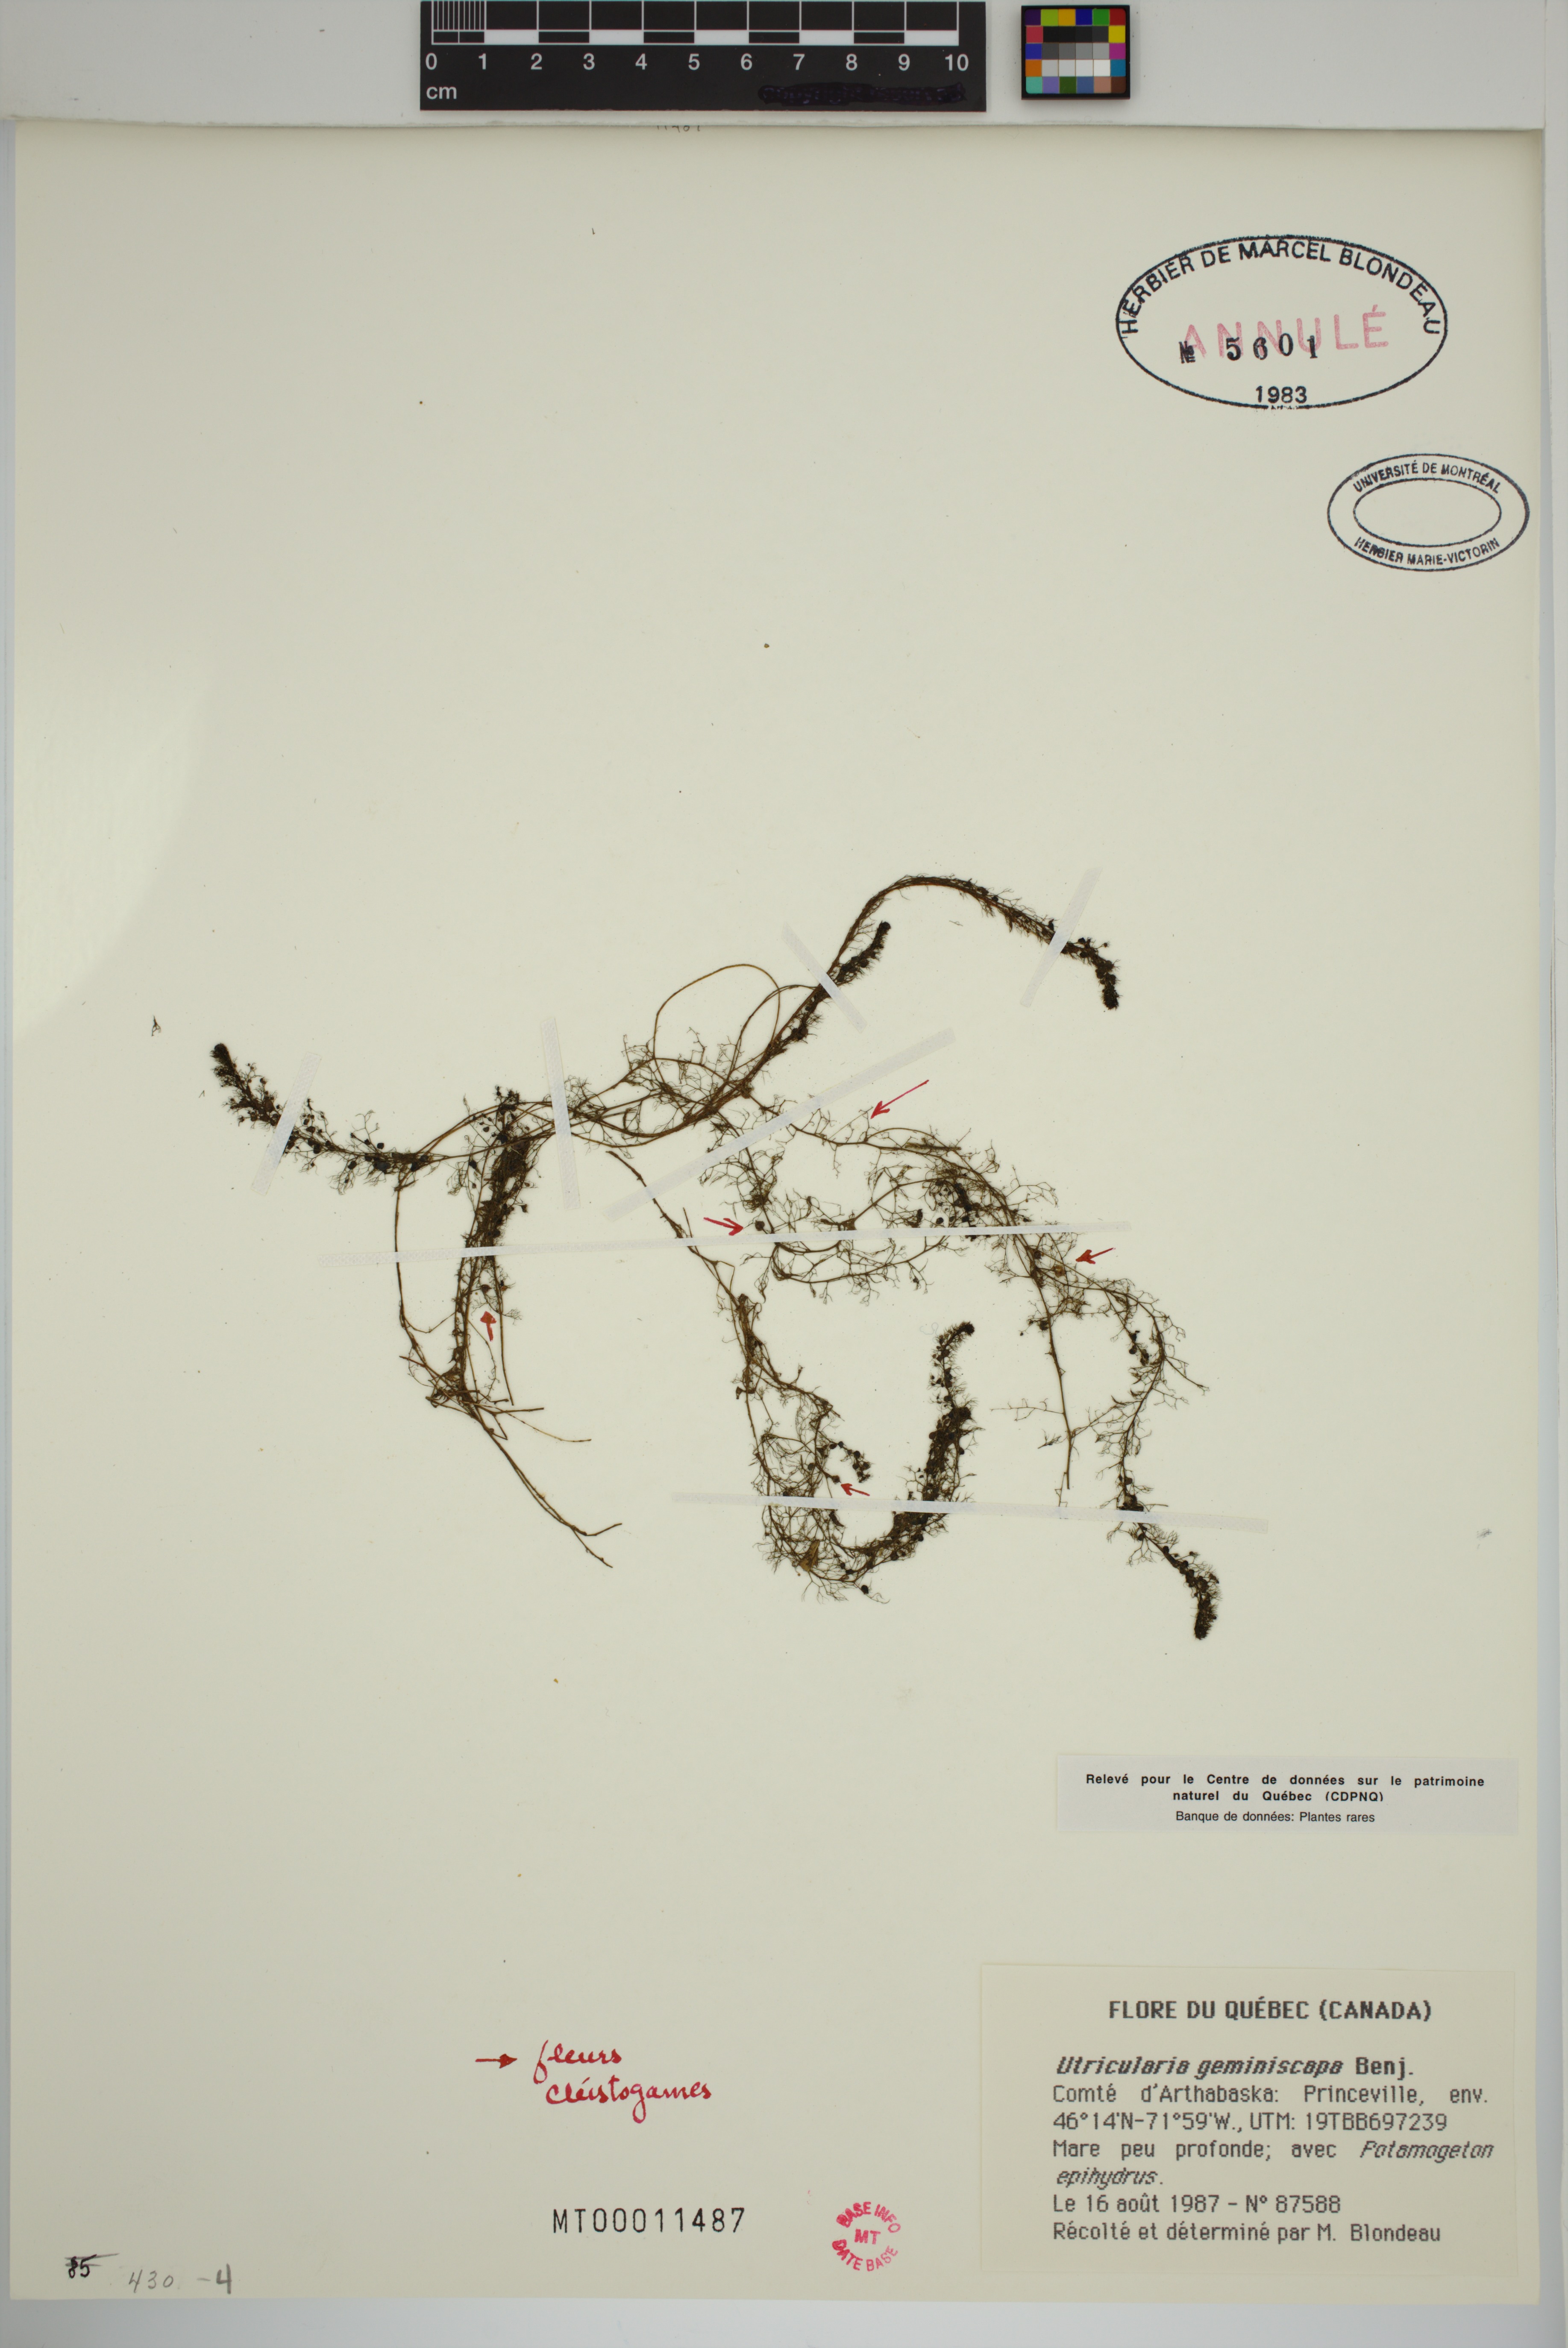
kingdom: Plantae
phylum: Tracheophyta
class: Magnoliopsida
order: Lamiales
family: Lentibulariaceae
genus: Utricularia
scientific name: Utricularia geminiscapa
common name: Hidden-fruit bladderwort
